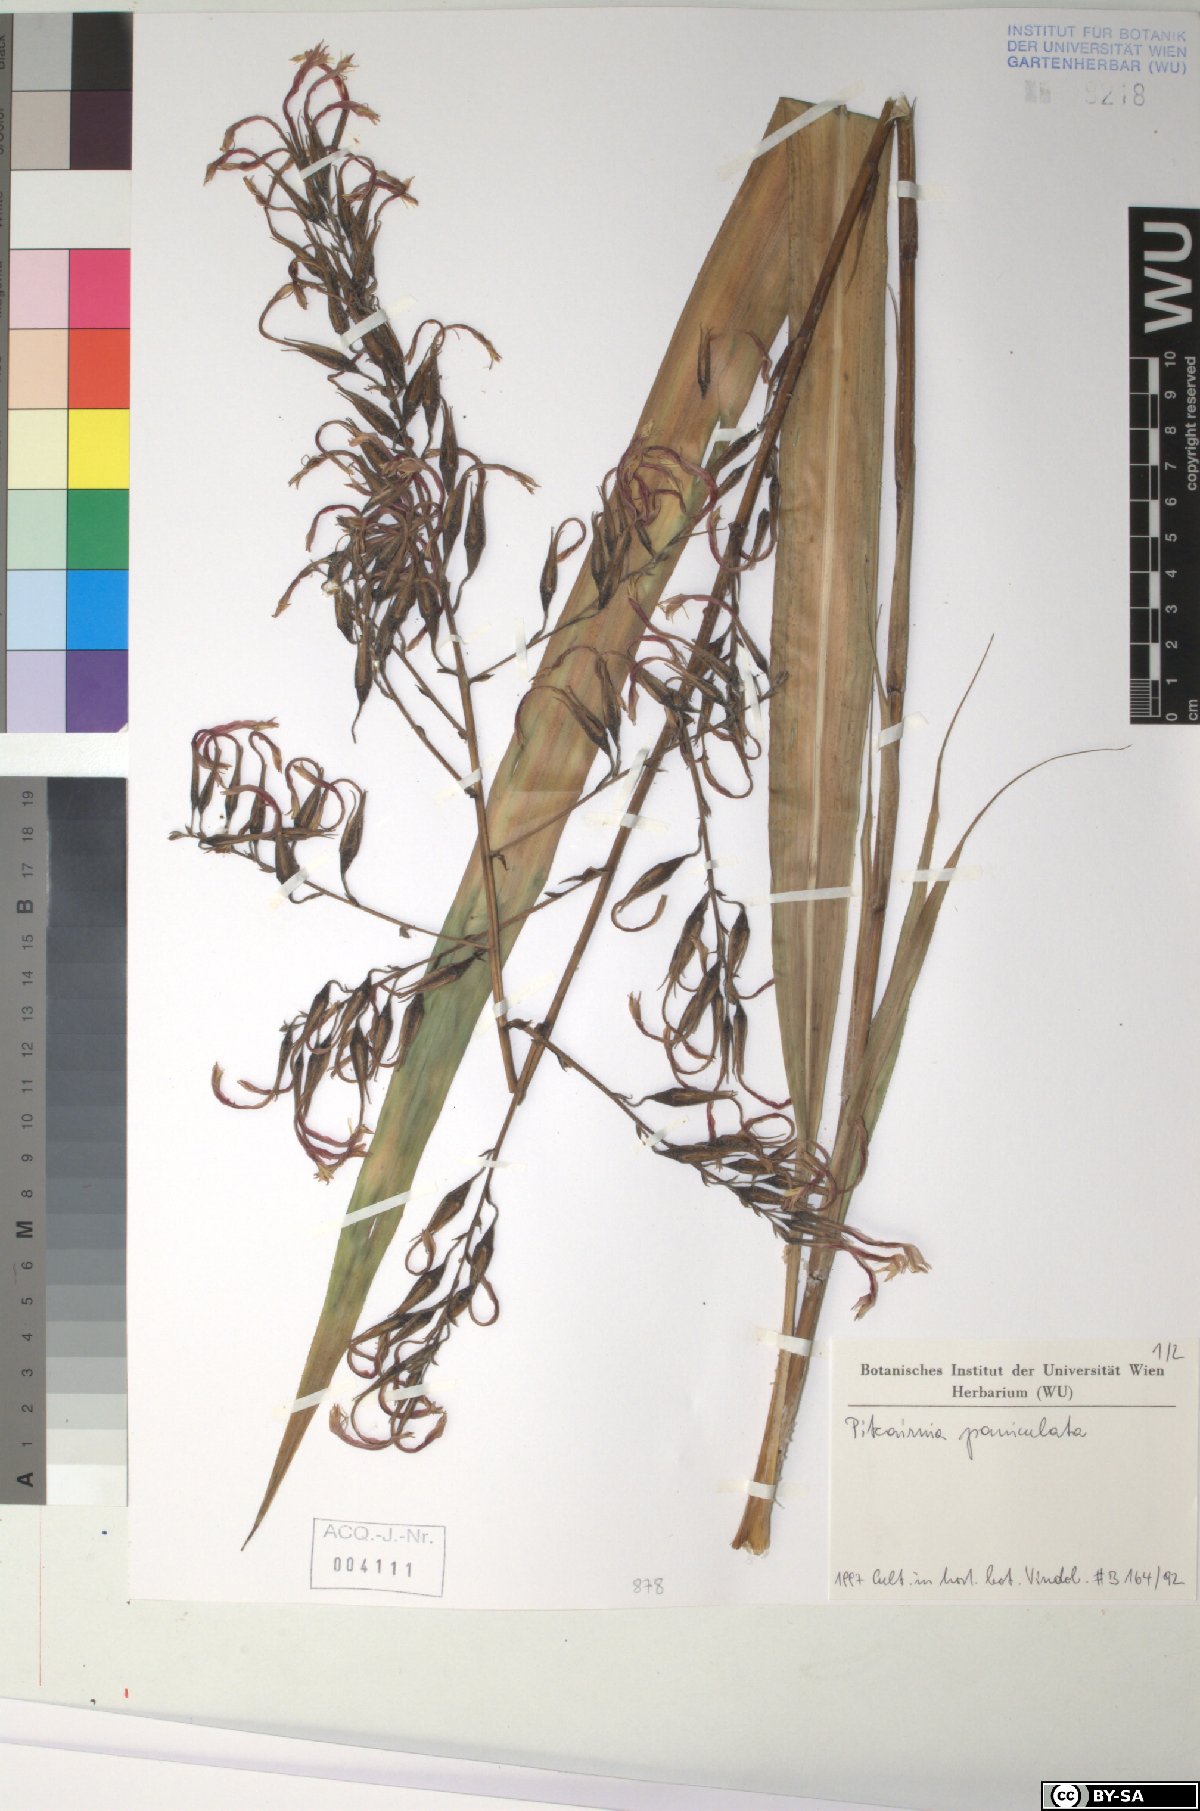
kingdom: Plantae
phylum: Tracheophyta
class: Liliopsida
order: Poales
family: Bromeliaceae
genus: Pitcairnia
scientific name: Pitcairnia paniculata
